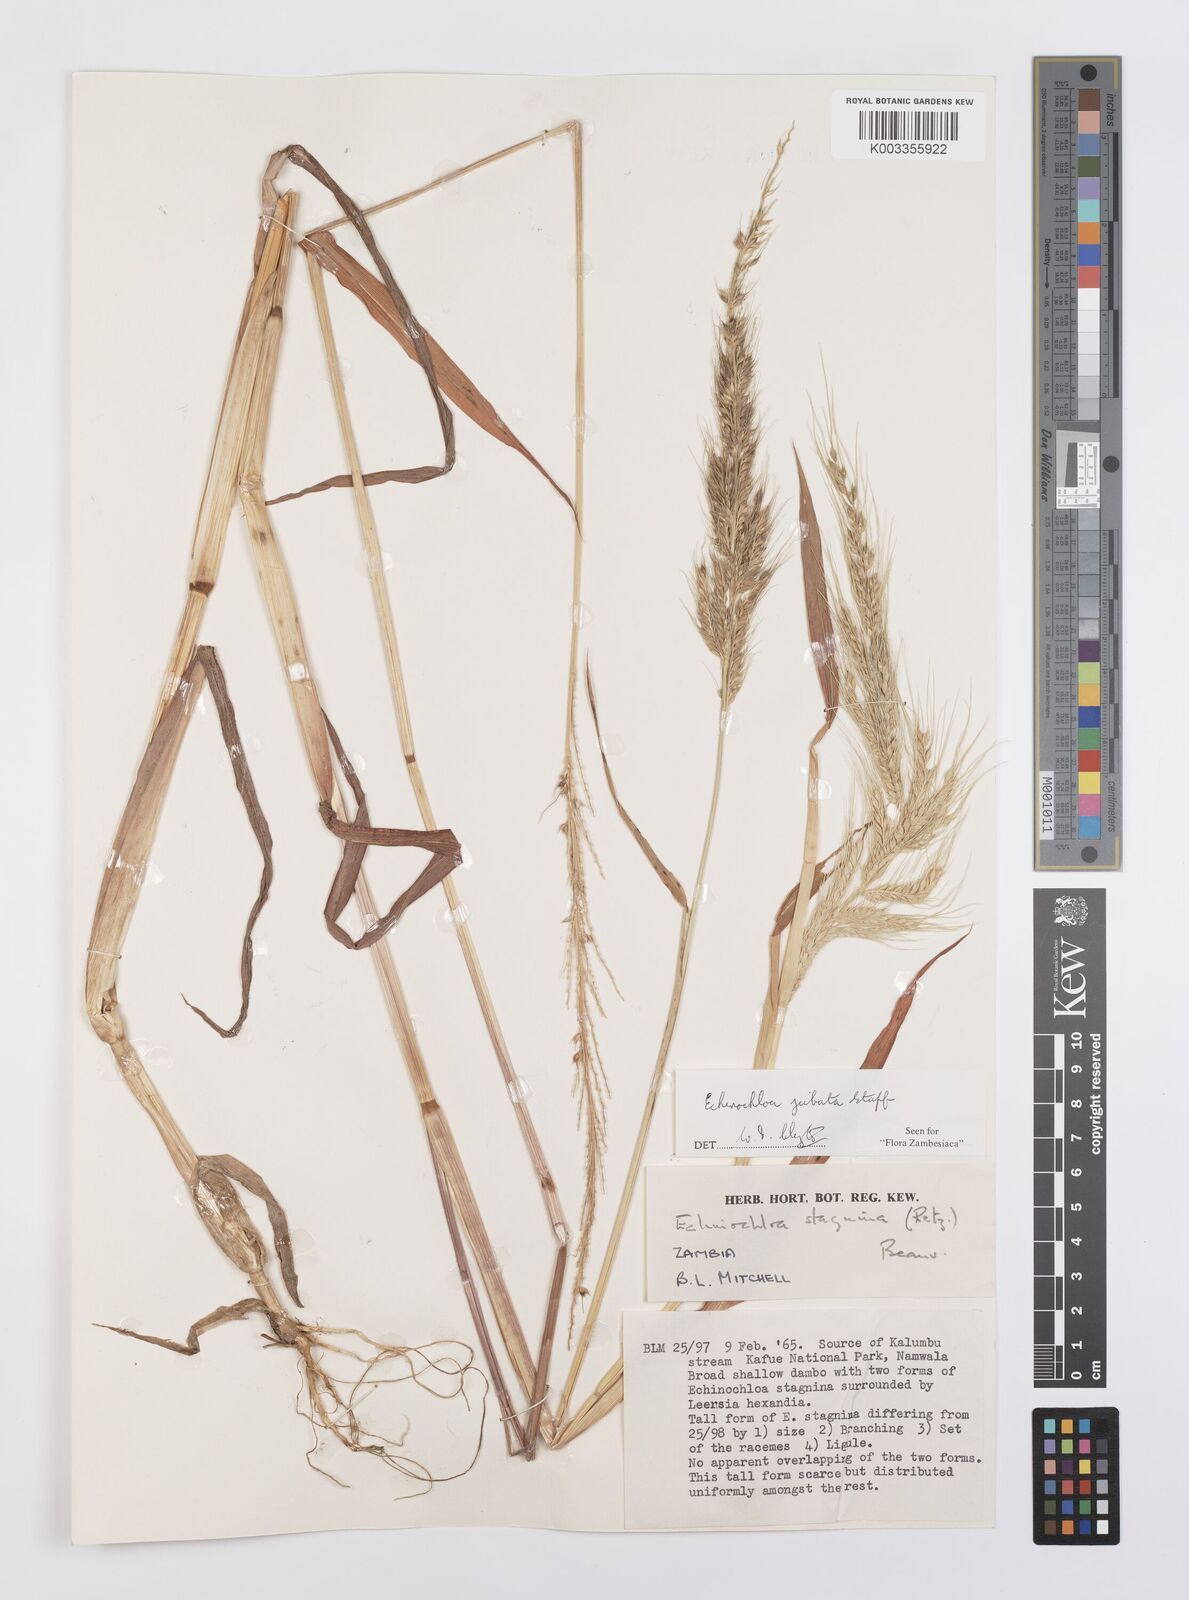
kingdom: Plantae
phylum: Tracheophyta
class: Liliopsida
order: Poales
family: Poaceae
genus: Echinochloa
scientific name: Echinochloa jubata
